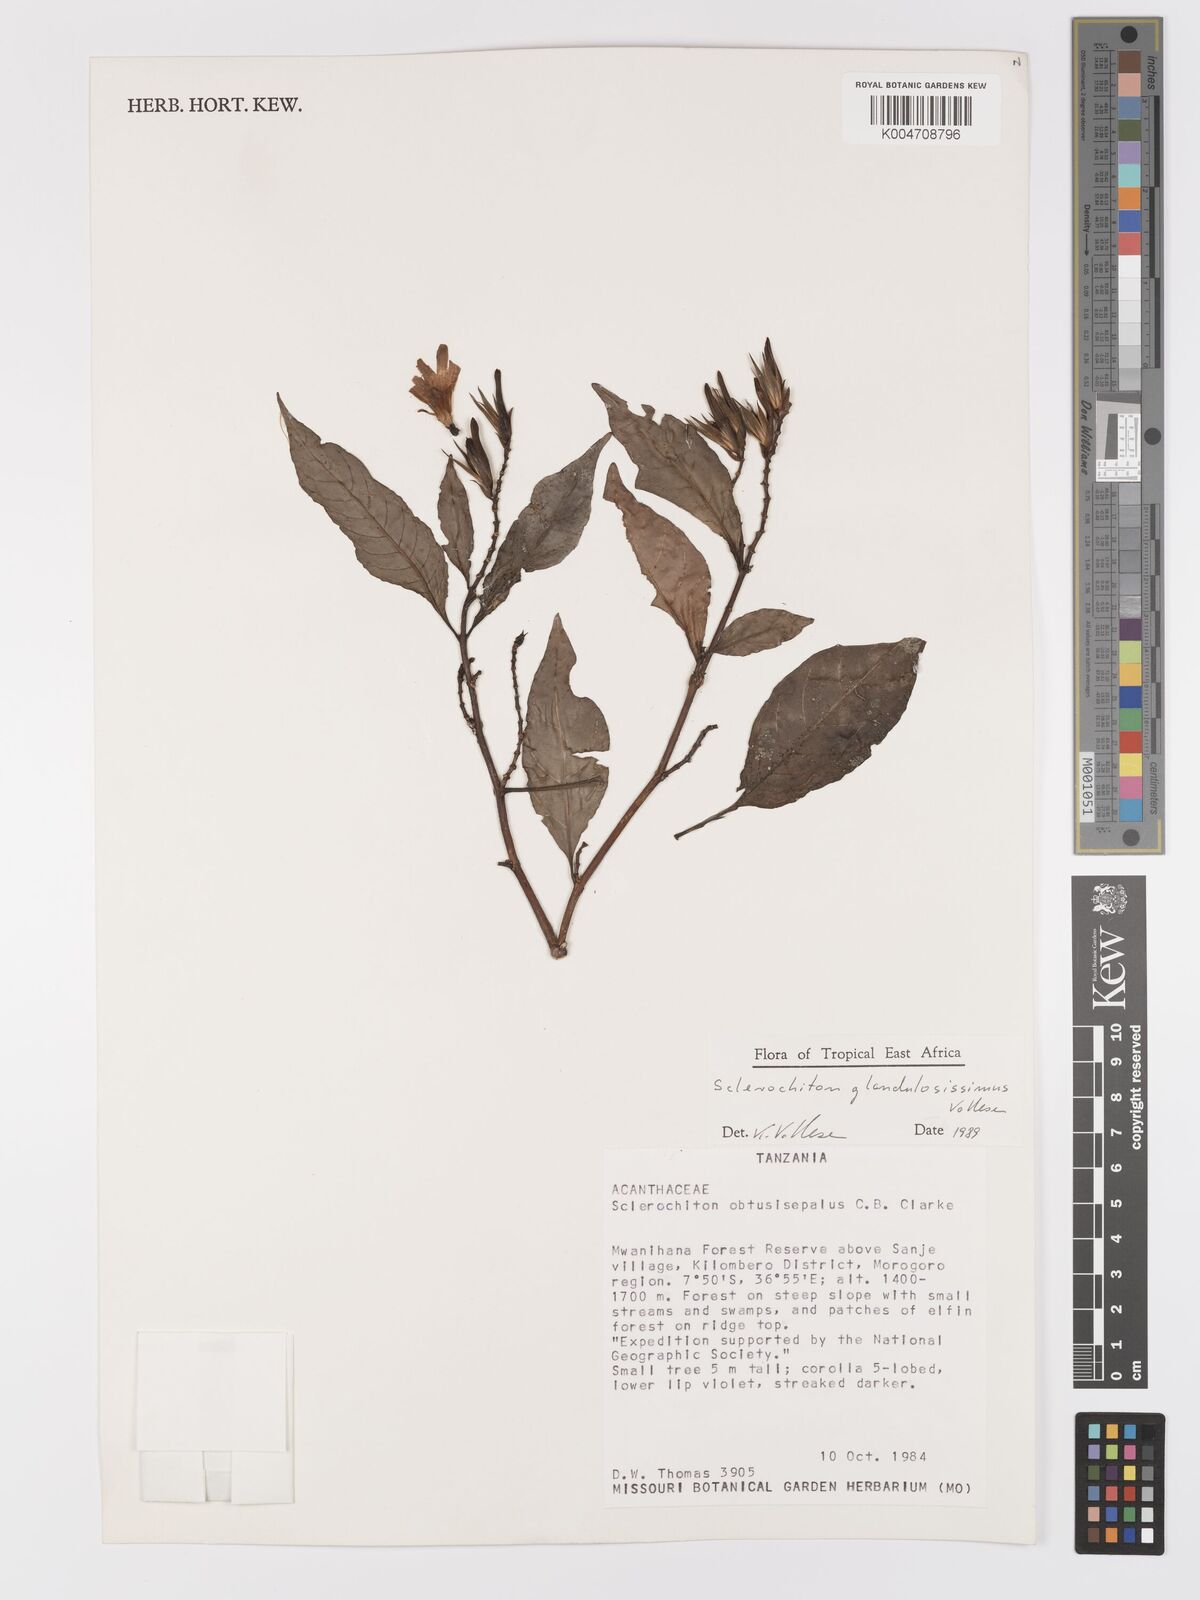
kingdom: Plantae
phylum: Tracheophyta
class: Magnoliopsida
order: Lamiales
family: Acanthaceae
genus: Sclerochiton
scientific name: Sclerochiton glandulosissimus
